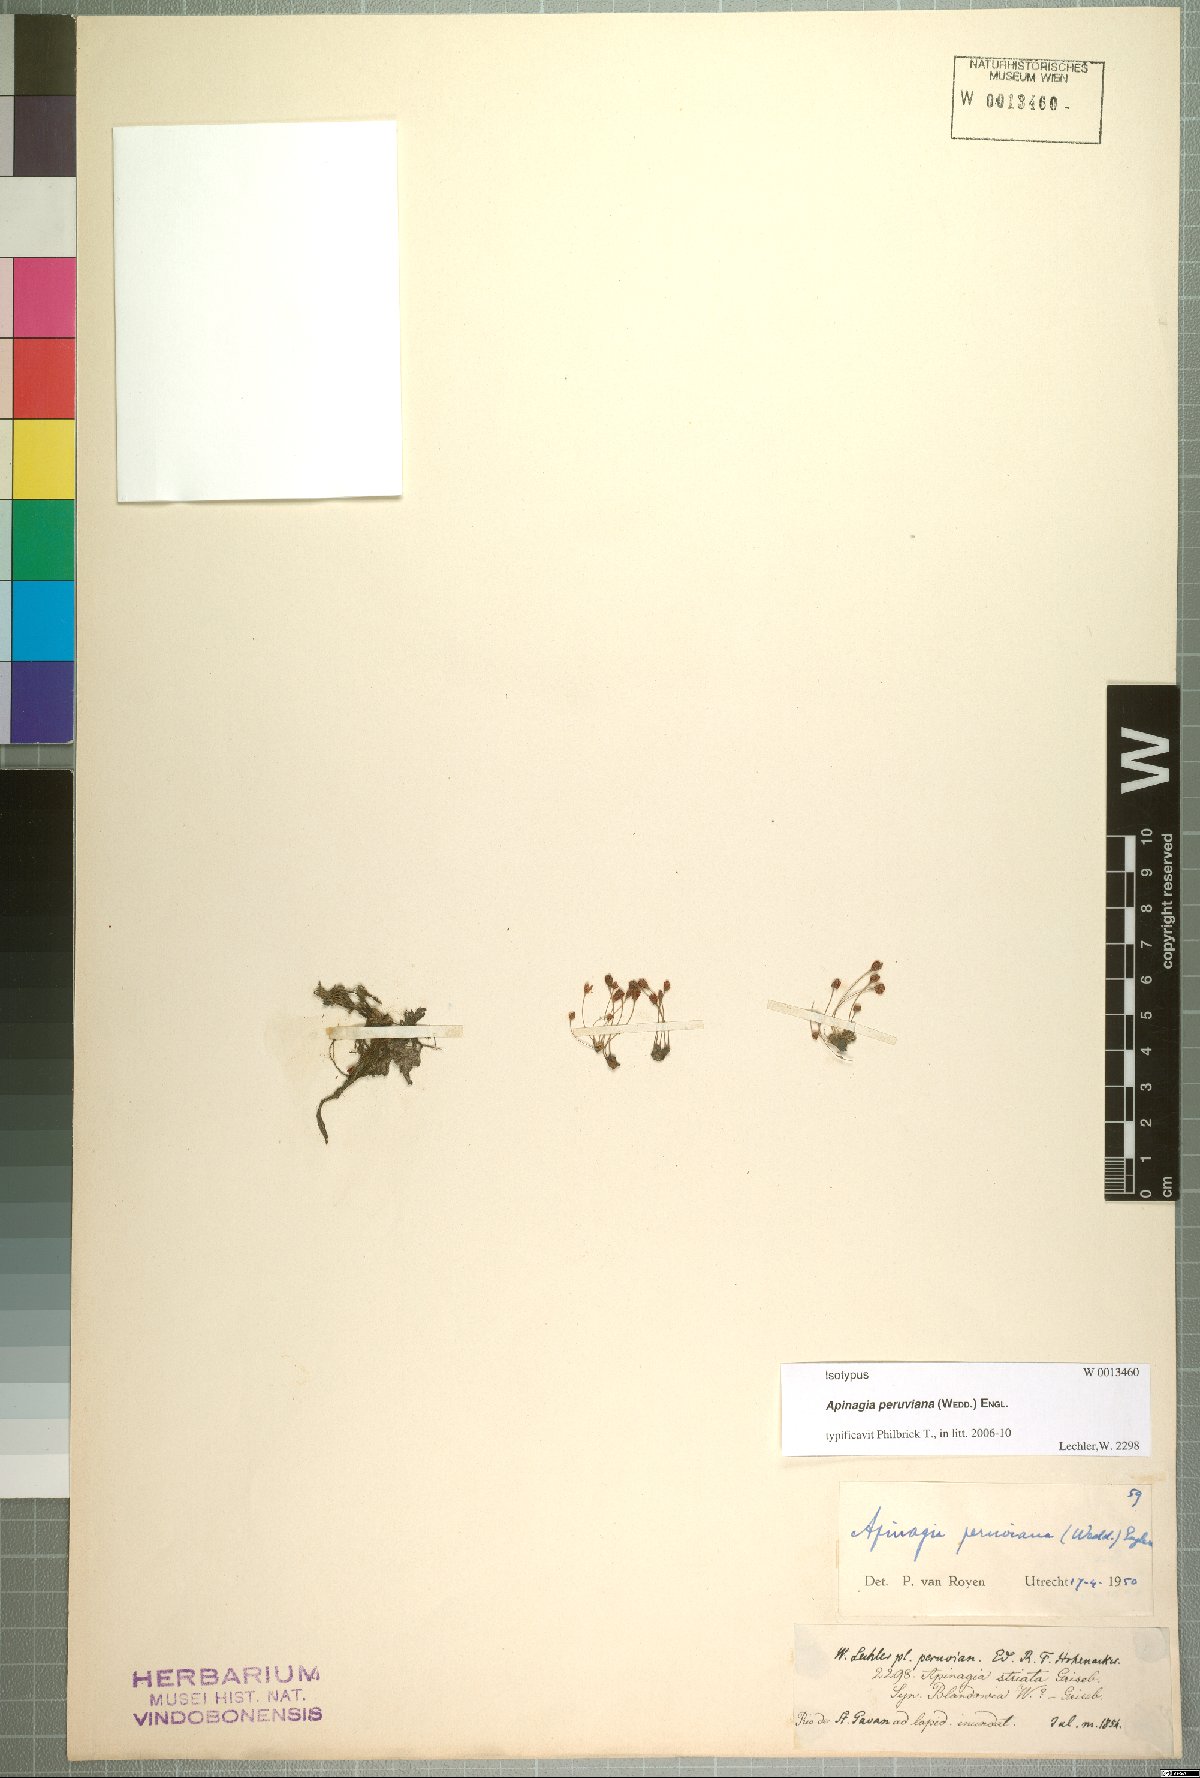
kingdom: Plantae
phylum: Tracheophyta
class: Magnoliopsida
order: Malpighiales
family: Podostemaceae
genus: Marathrum
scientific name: Marathrum tenue
